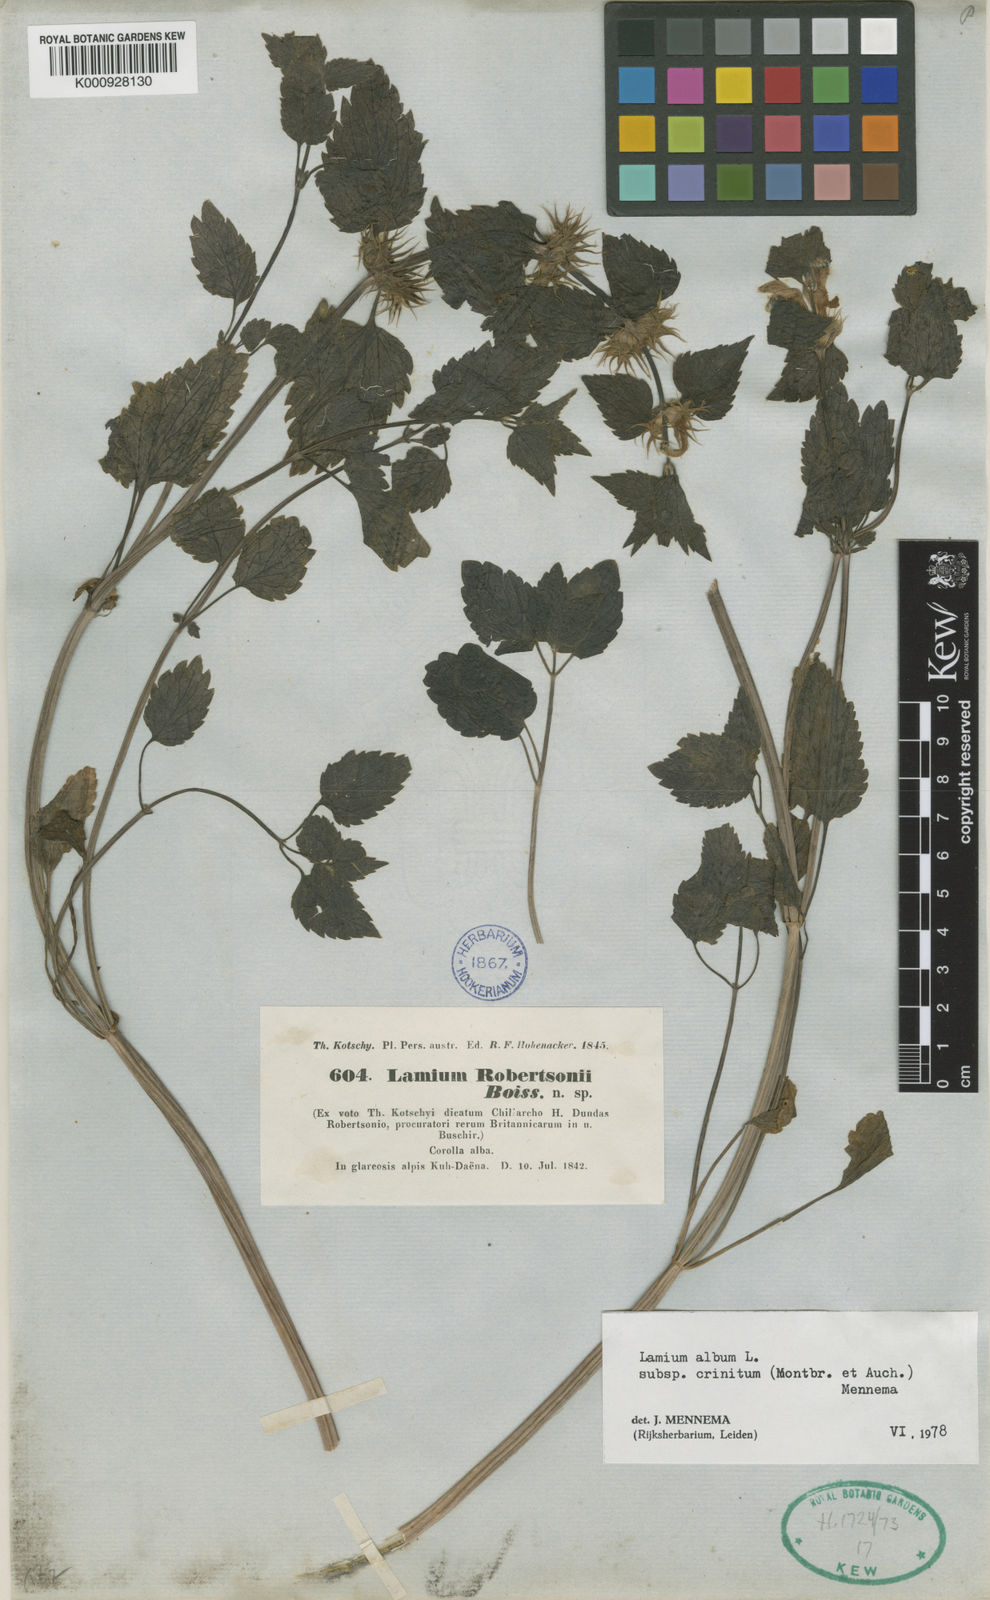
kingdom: Plantae
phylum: Tracheophyta
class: Magnoliopsida
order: Lamiales
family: Lamiaceae
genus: Lamium
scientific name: Lamium album
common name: White dead-nettle
